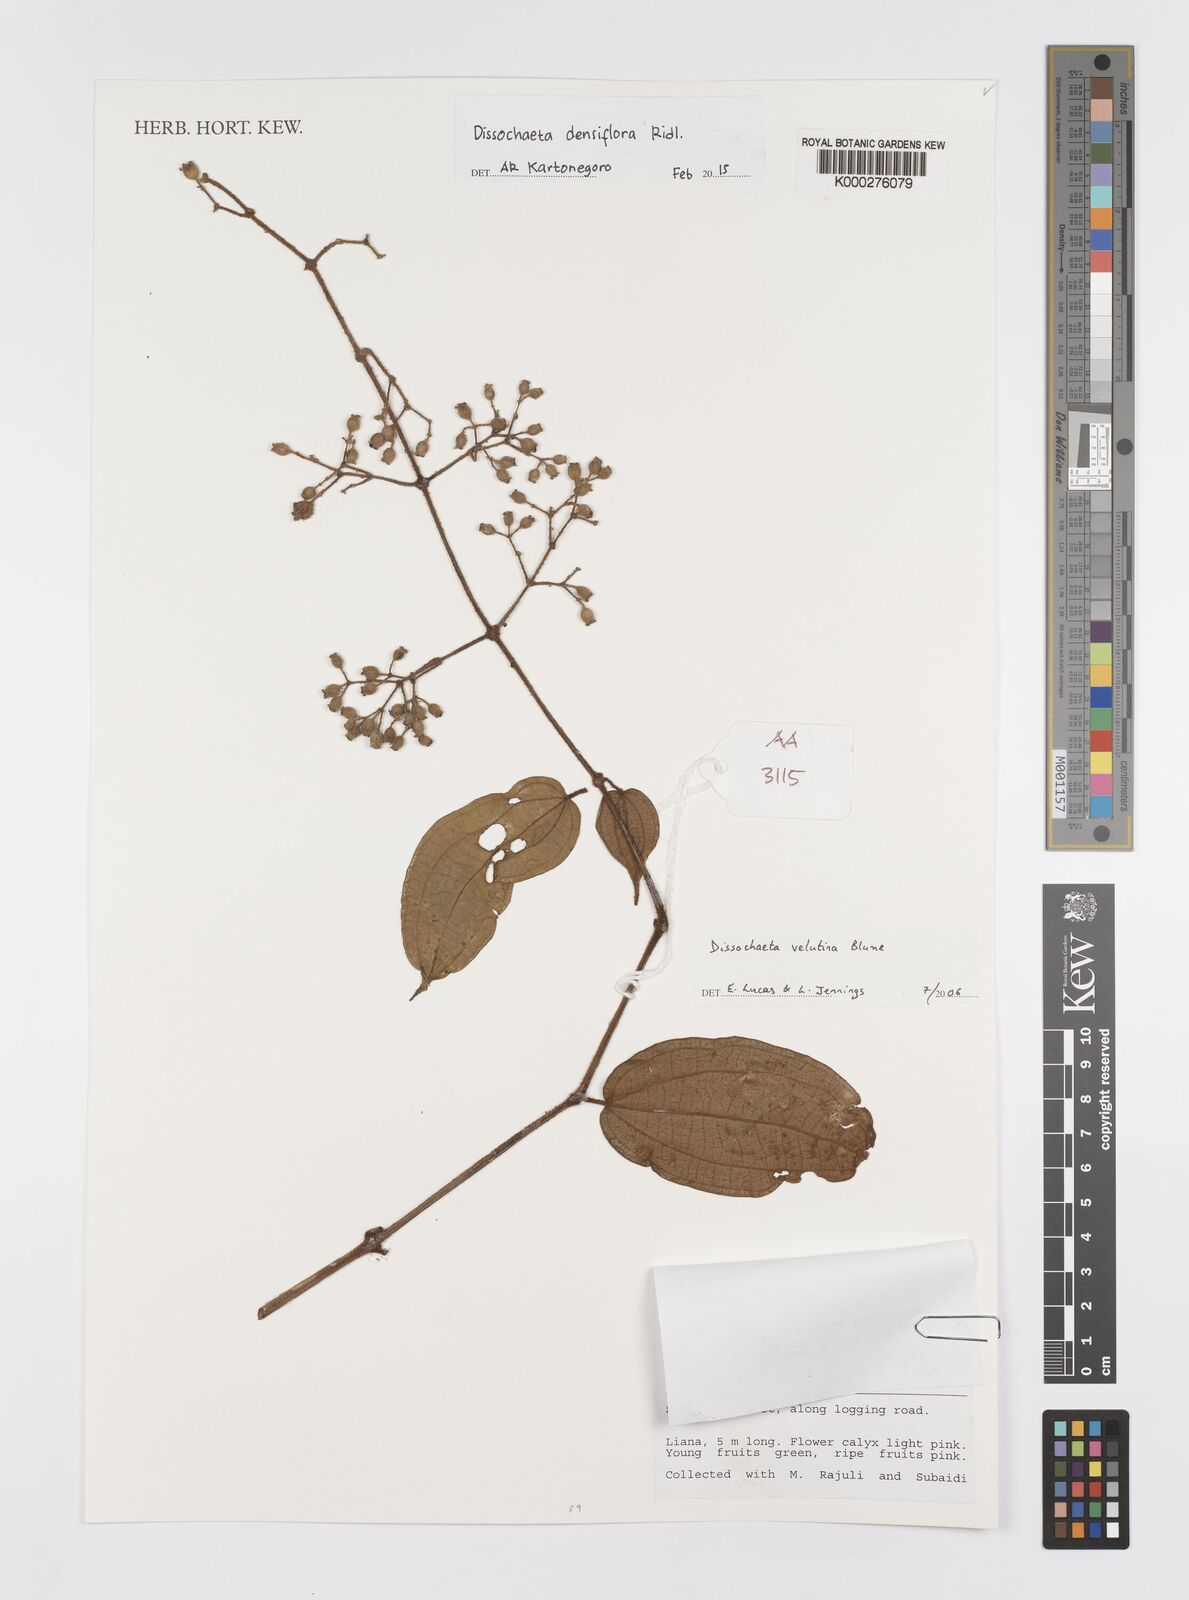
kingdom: Plantae
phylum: Tracheophyta
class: Magnoliopsida
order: Myrtales
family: Melastomataceae
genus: Dissochaeta
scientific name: Dissochaeta densiflora
